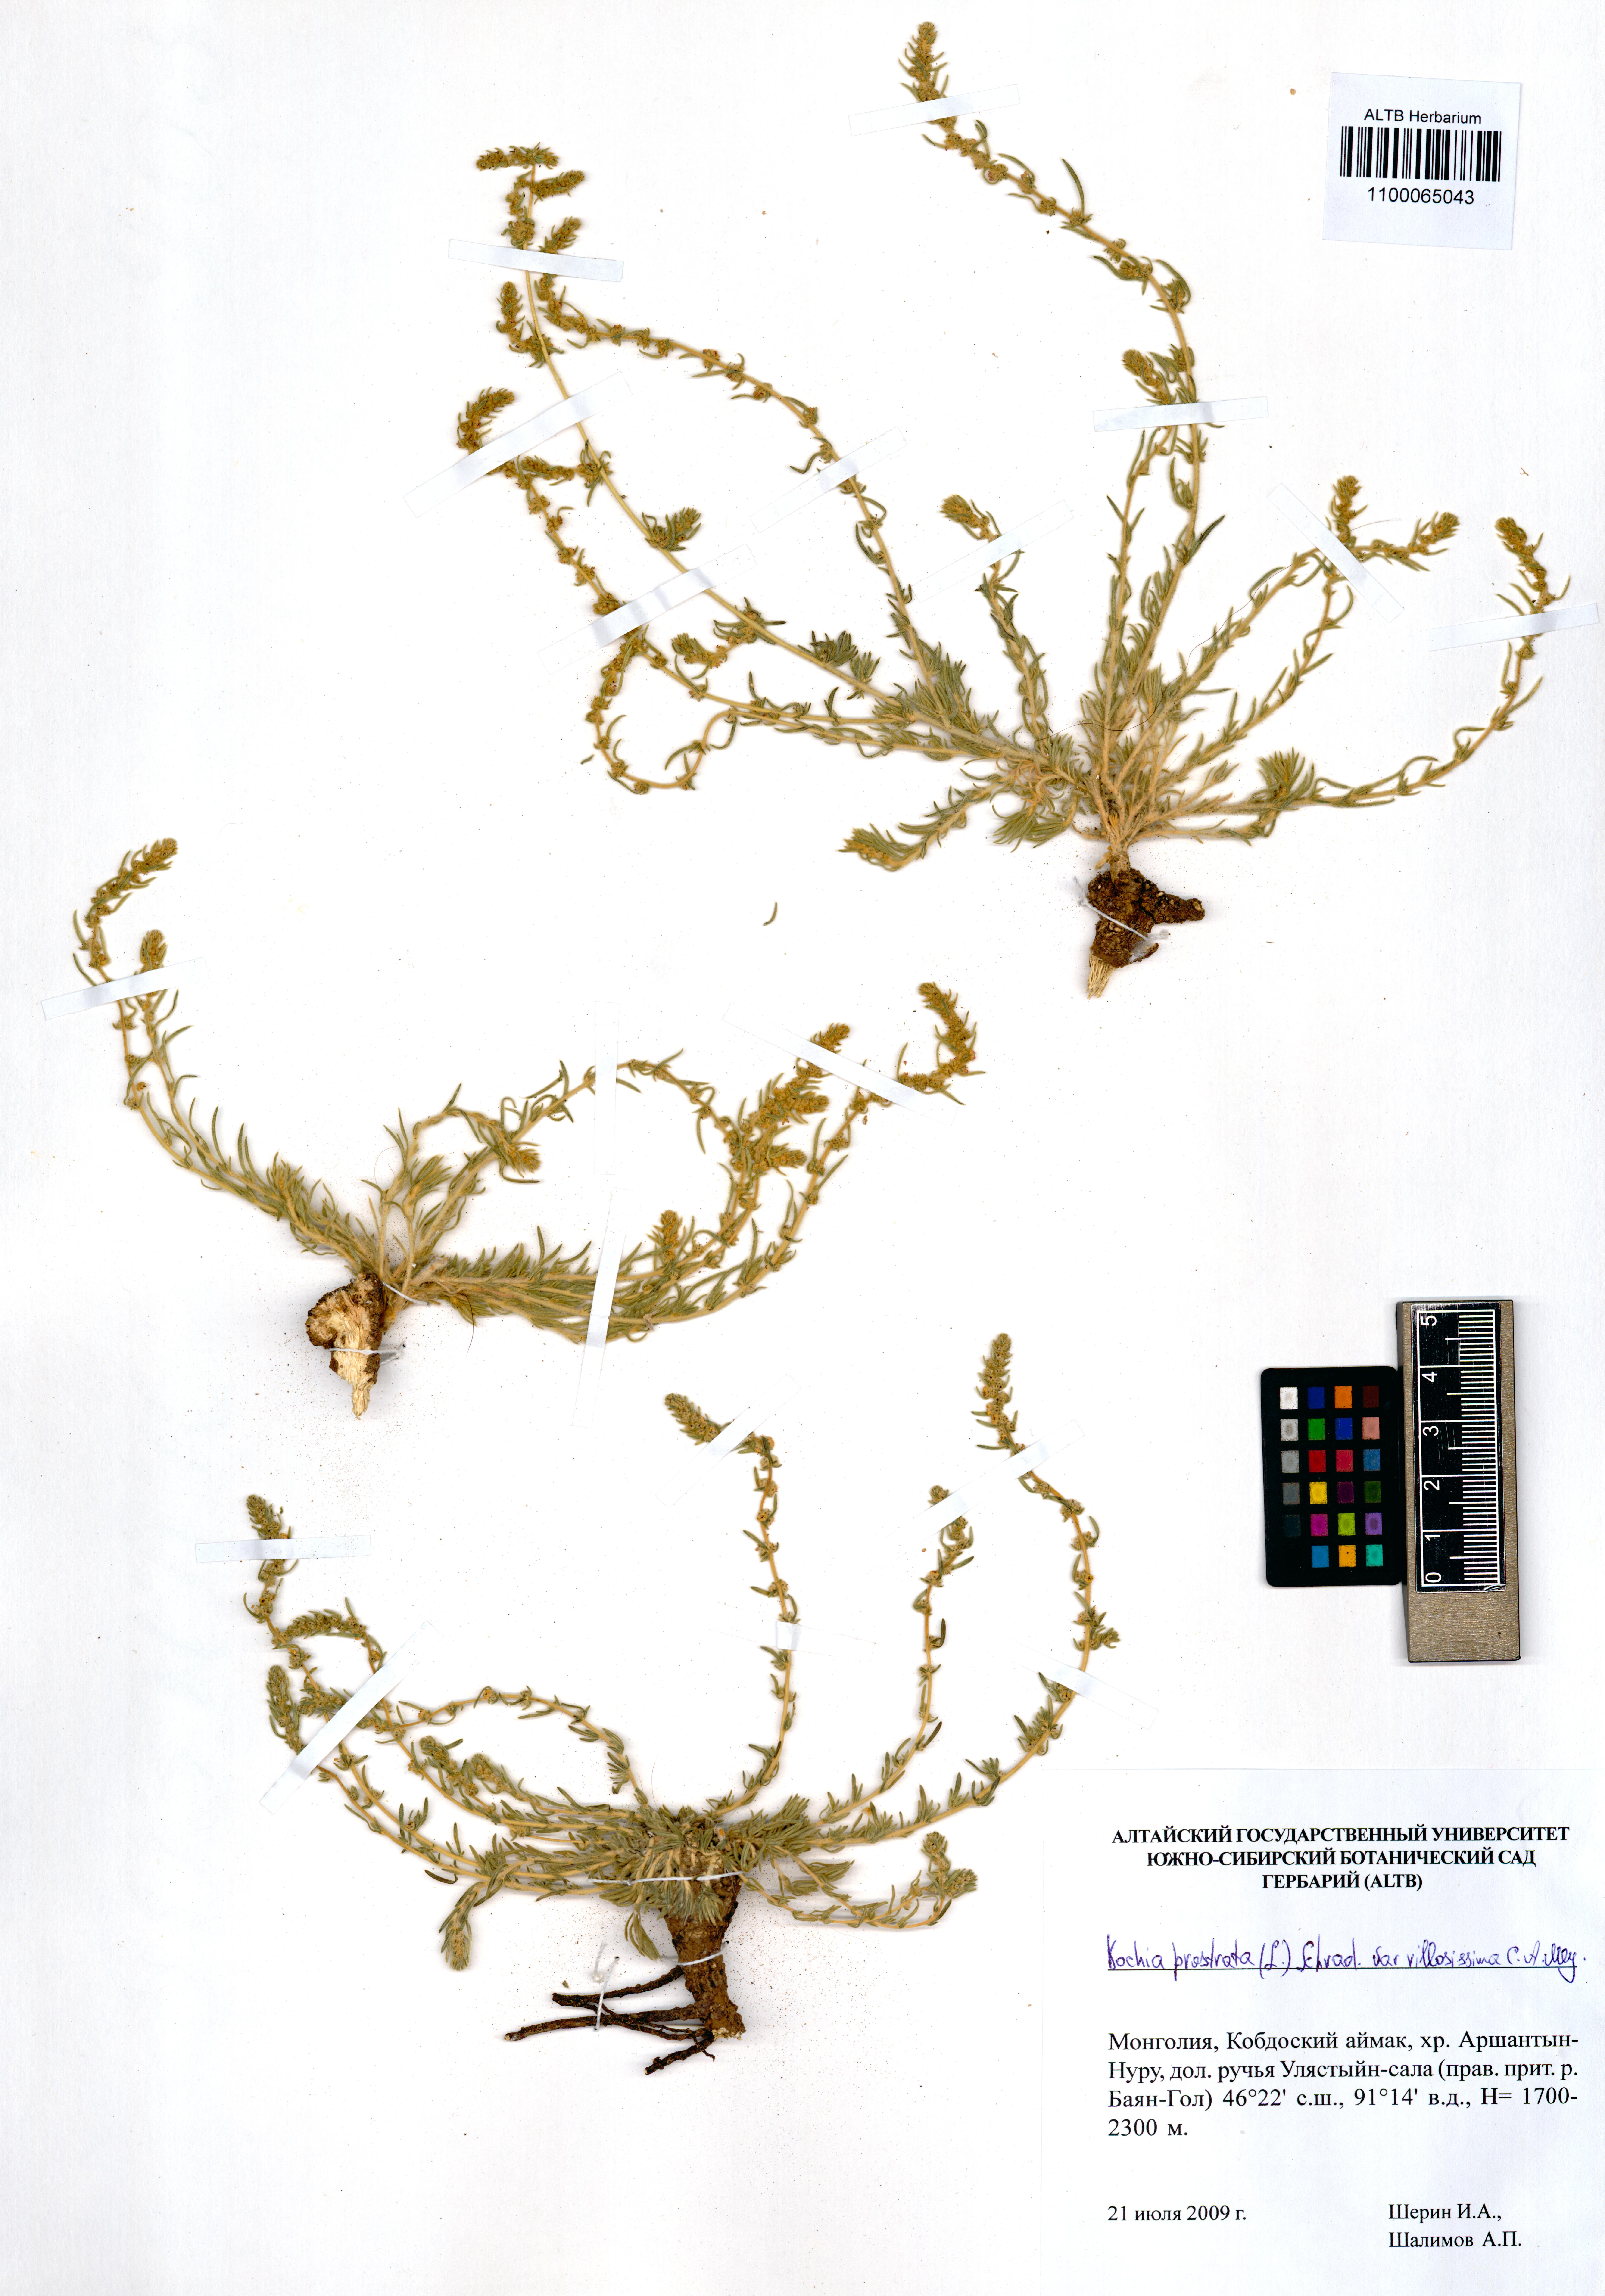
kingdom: Plantae
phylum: Tracheophyta
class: Magnoliopsida
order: Caryophyllales
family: Amaranthaceae
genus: Bassia
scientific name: Bassia villosissima
